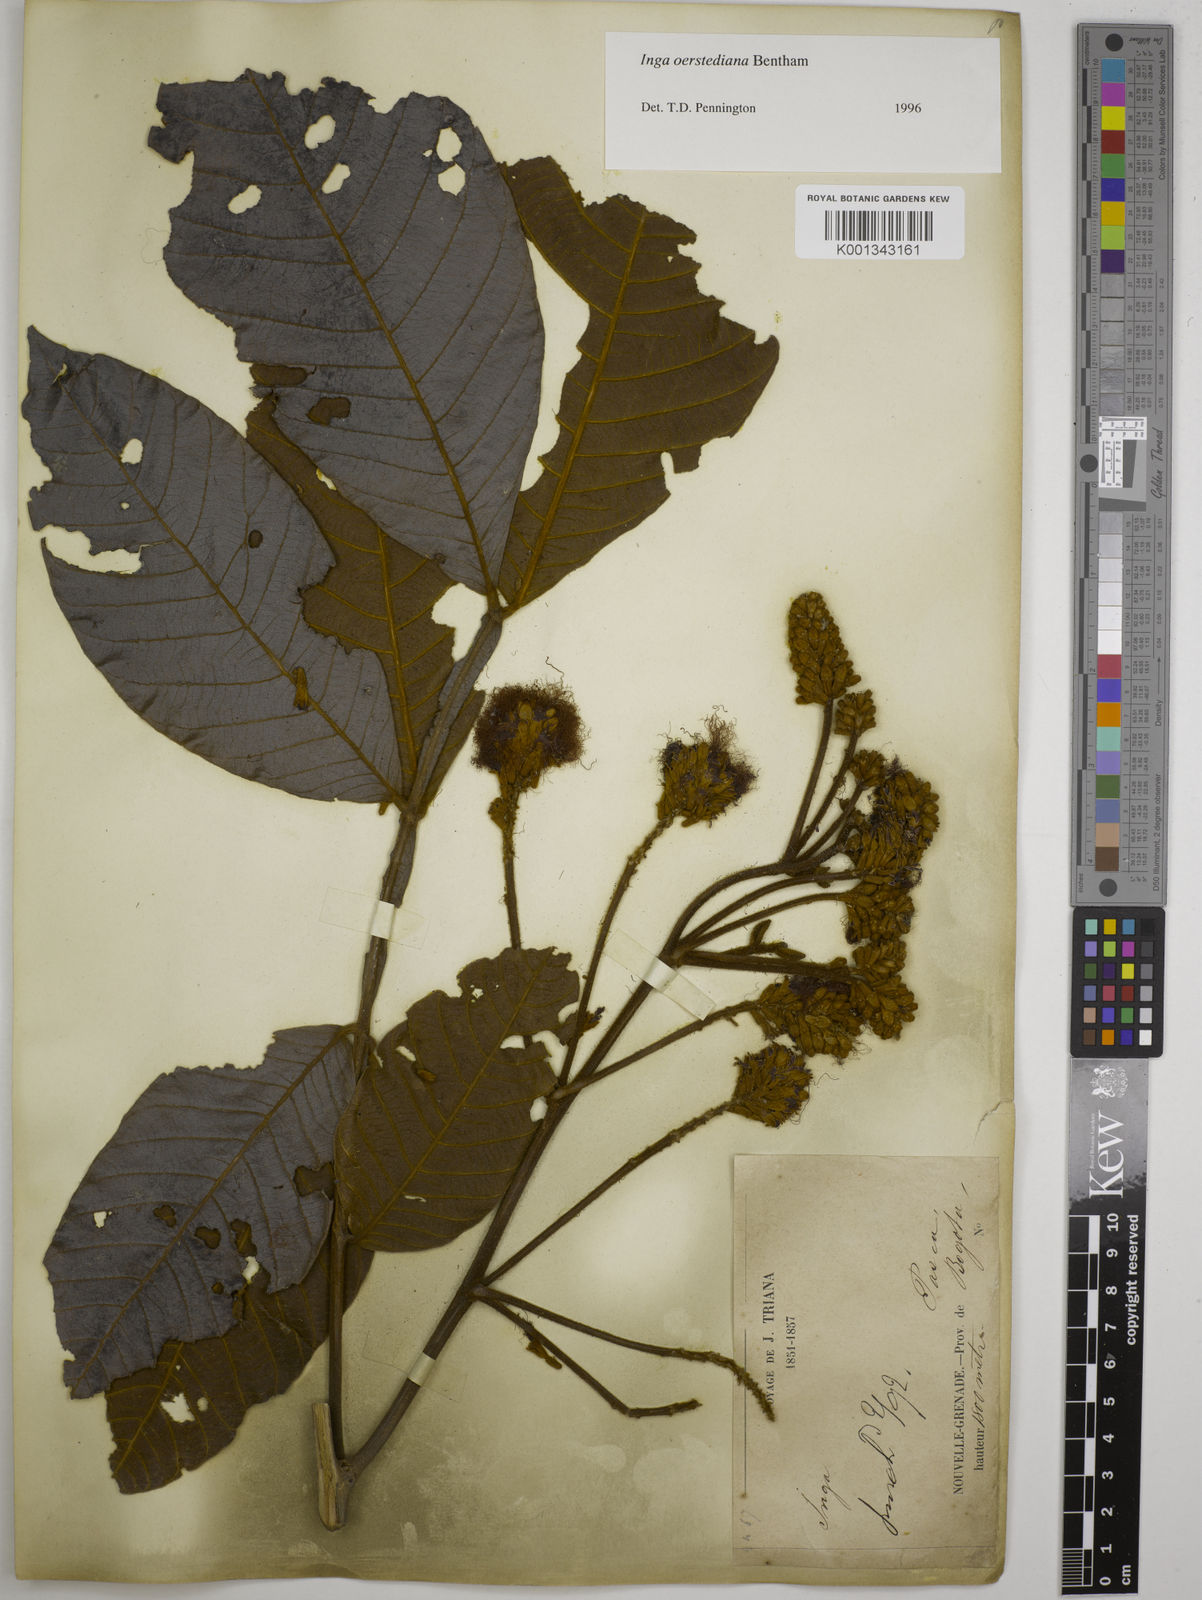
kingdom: Plantae
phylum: Tracheophyta
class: Magnoliopsida
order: Fabales
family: Fabaceae
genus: Inga
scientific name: Inga oerstediana
